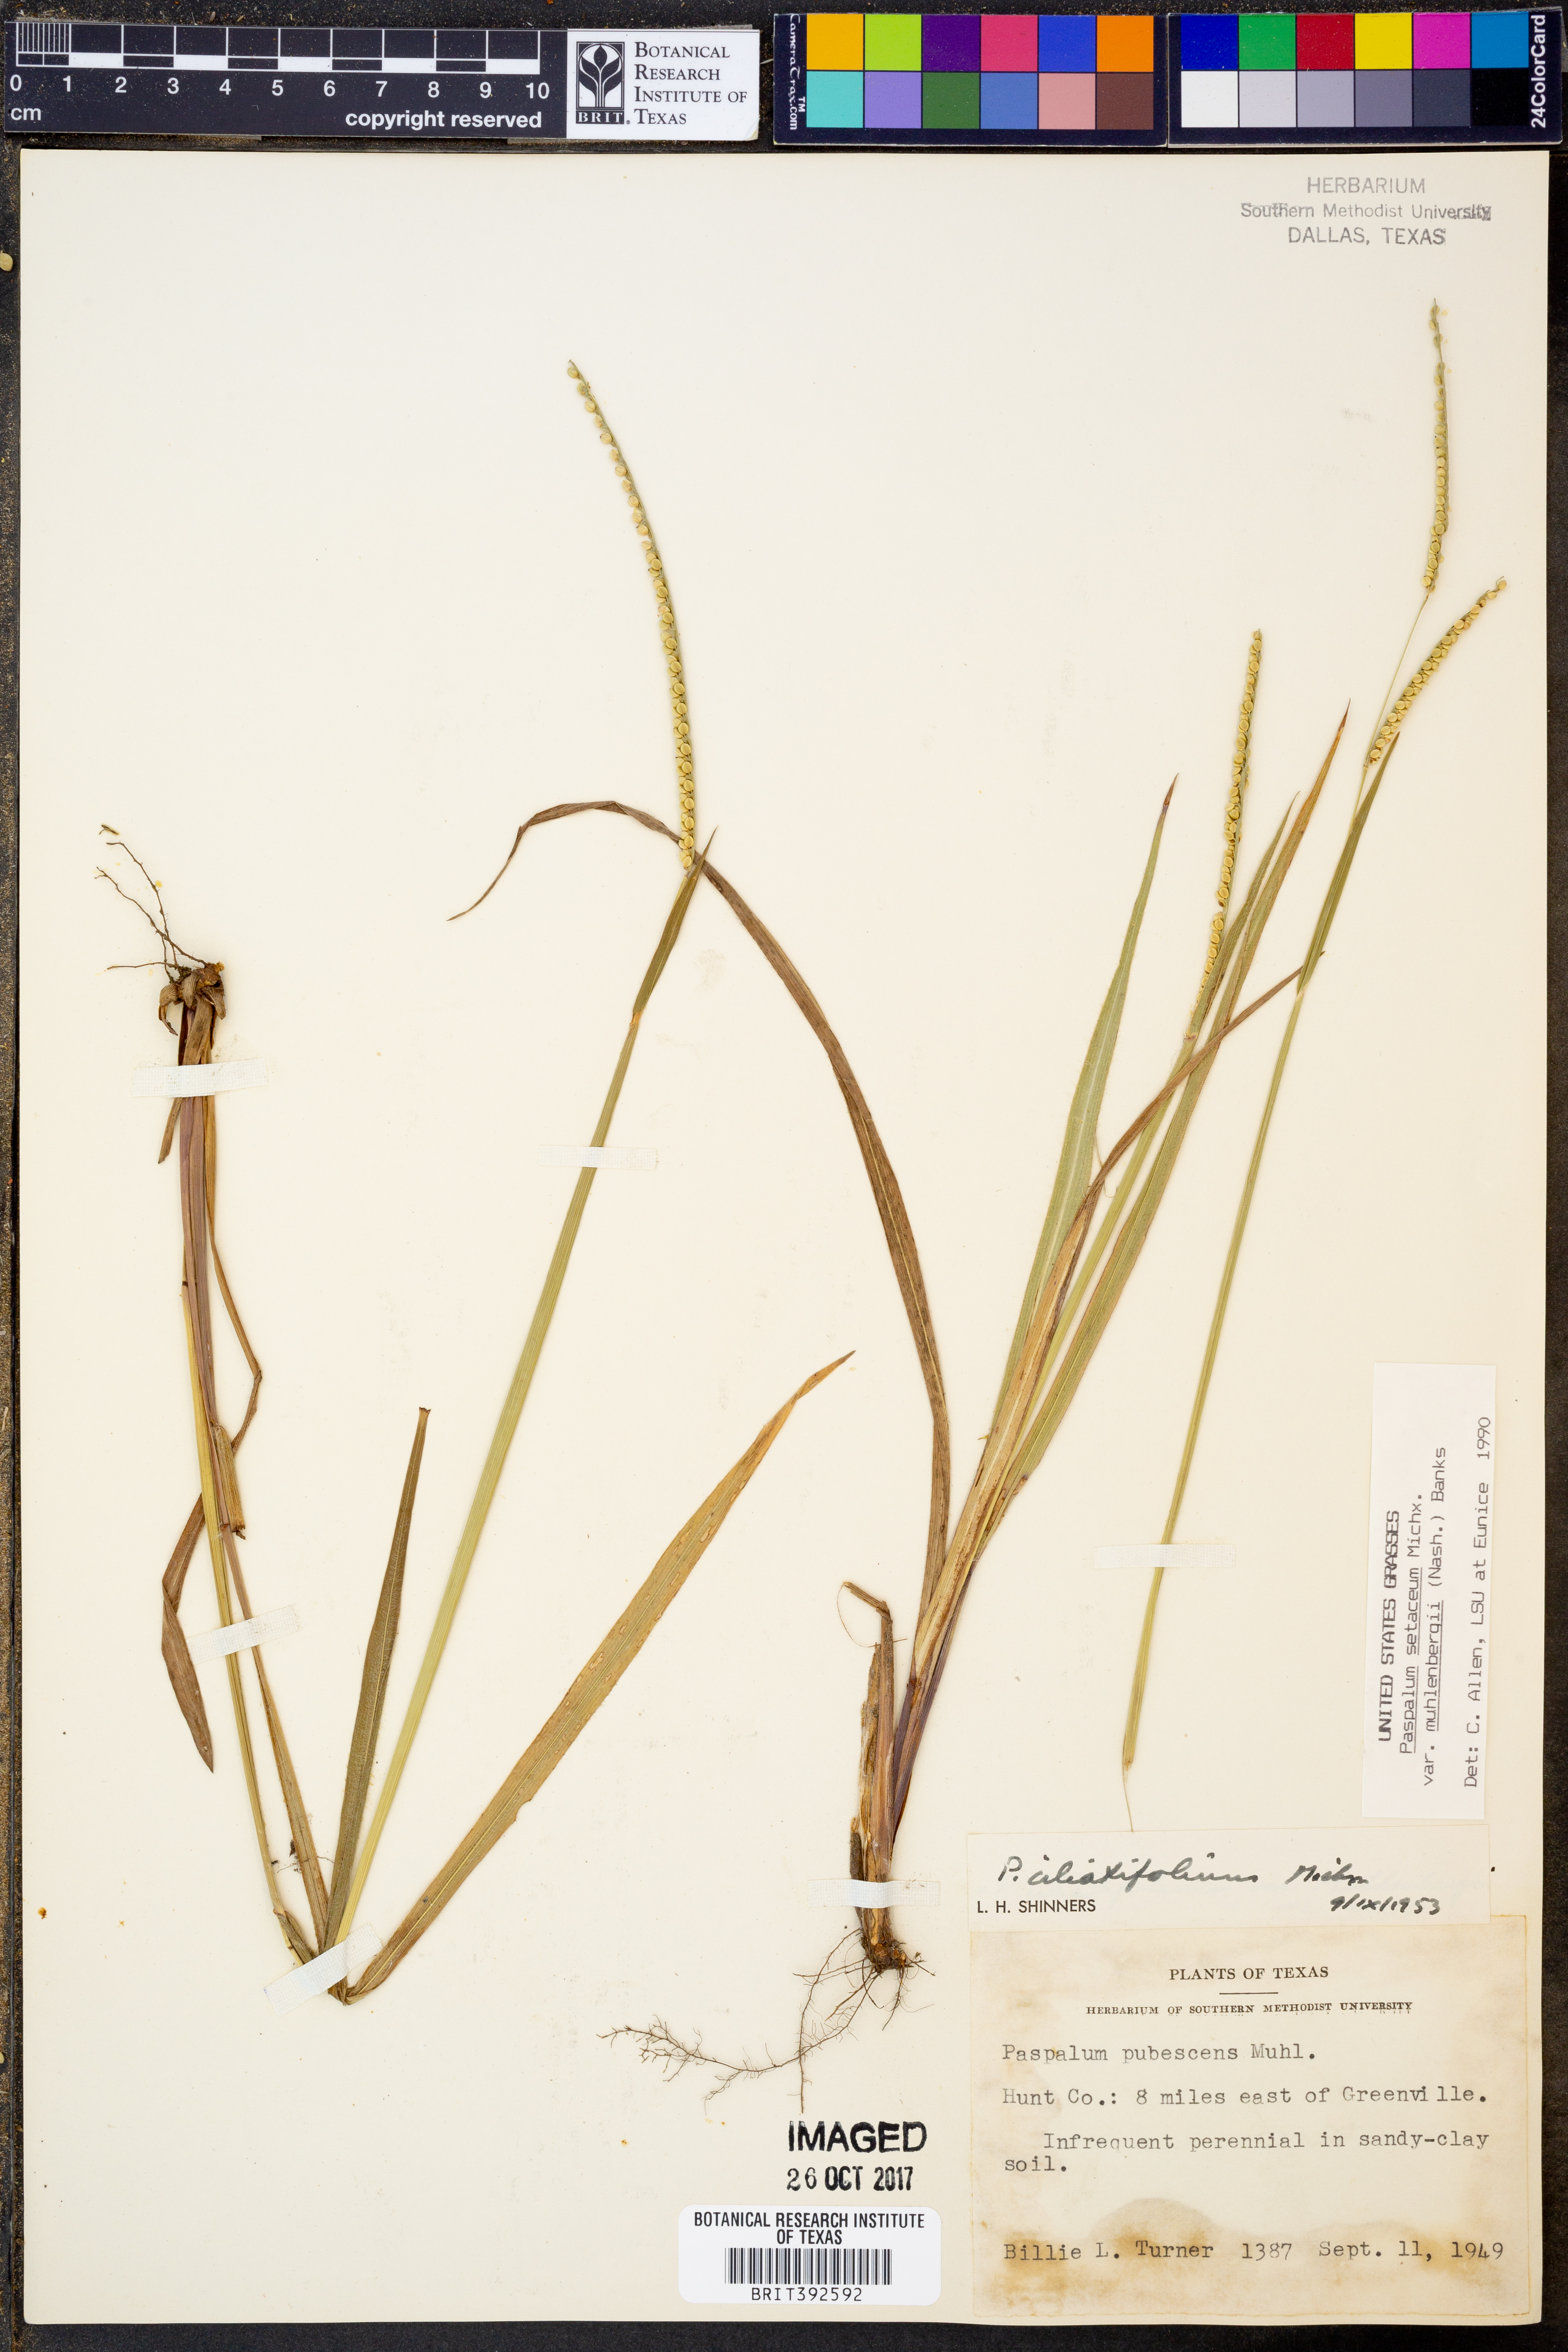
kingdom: Plantae
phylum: Tracheophyta
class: Liliopsida
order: Poales
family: Poaceae
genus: Paspalum
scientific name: Paspalum setaceum
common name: Slender paspalum
